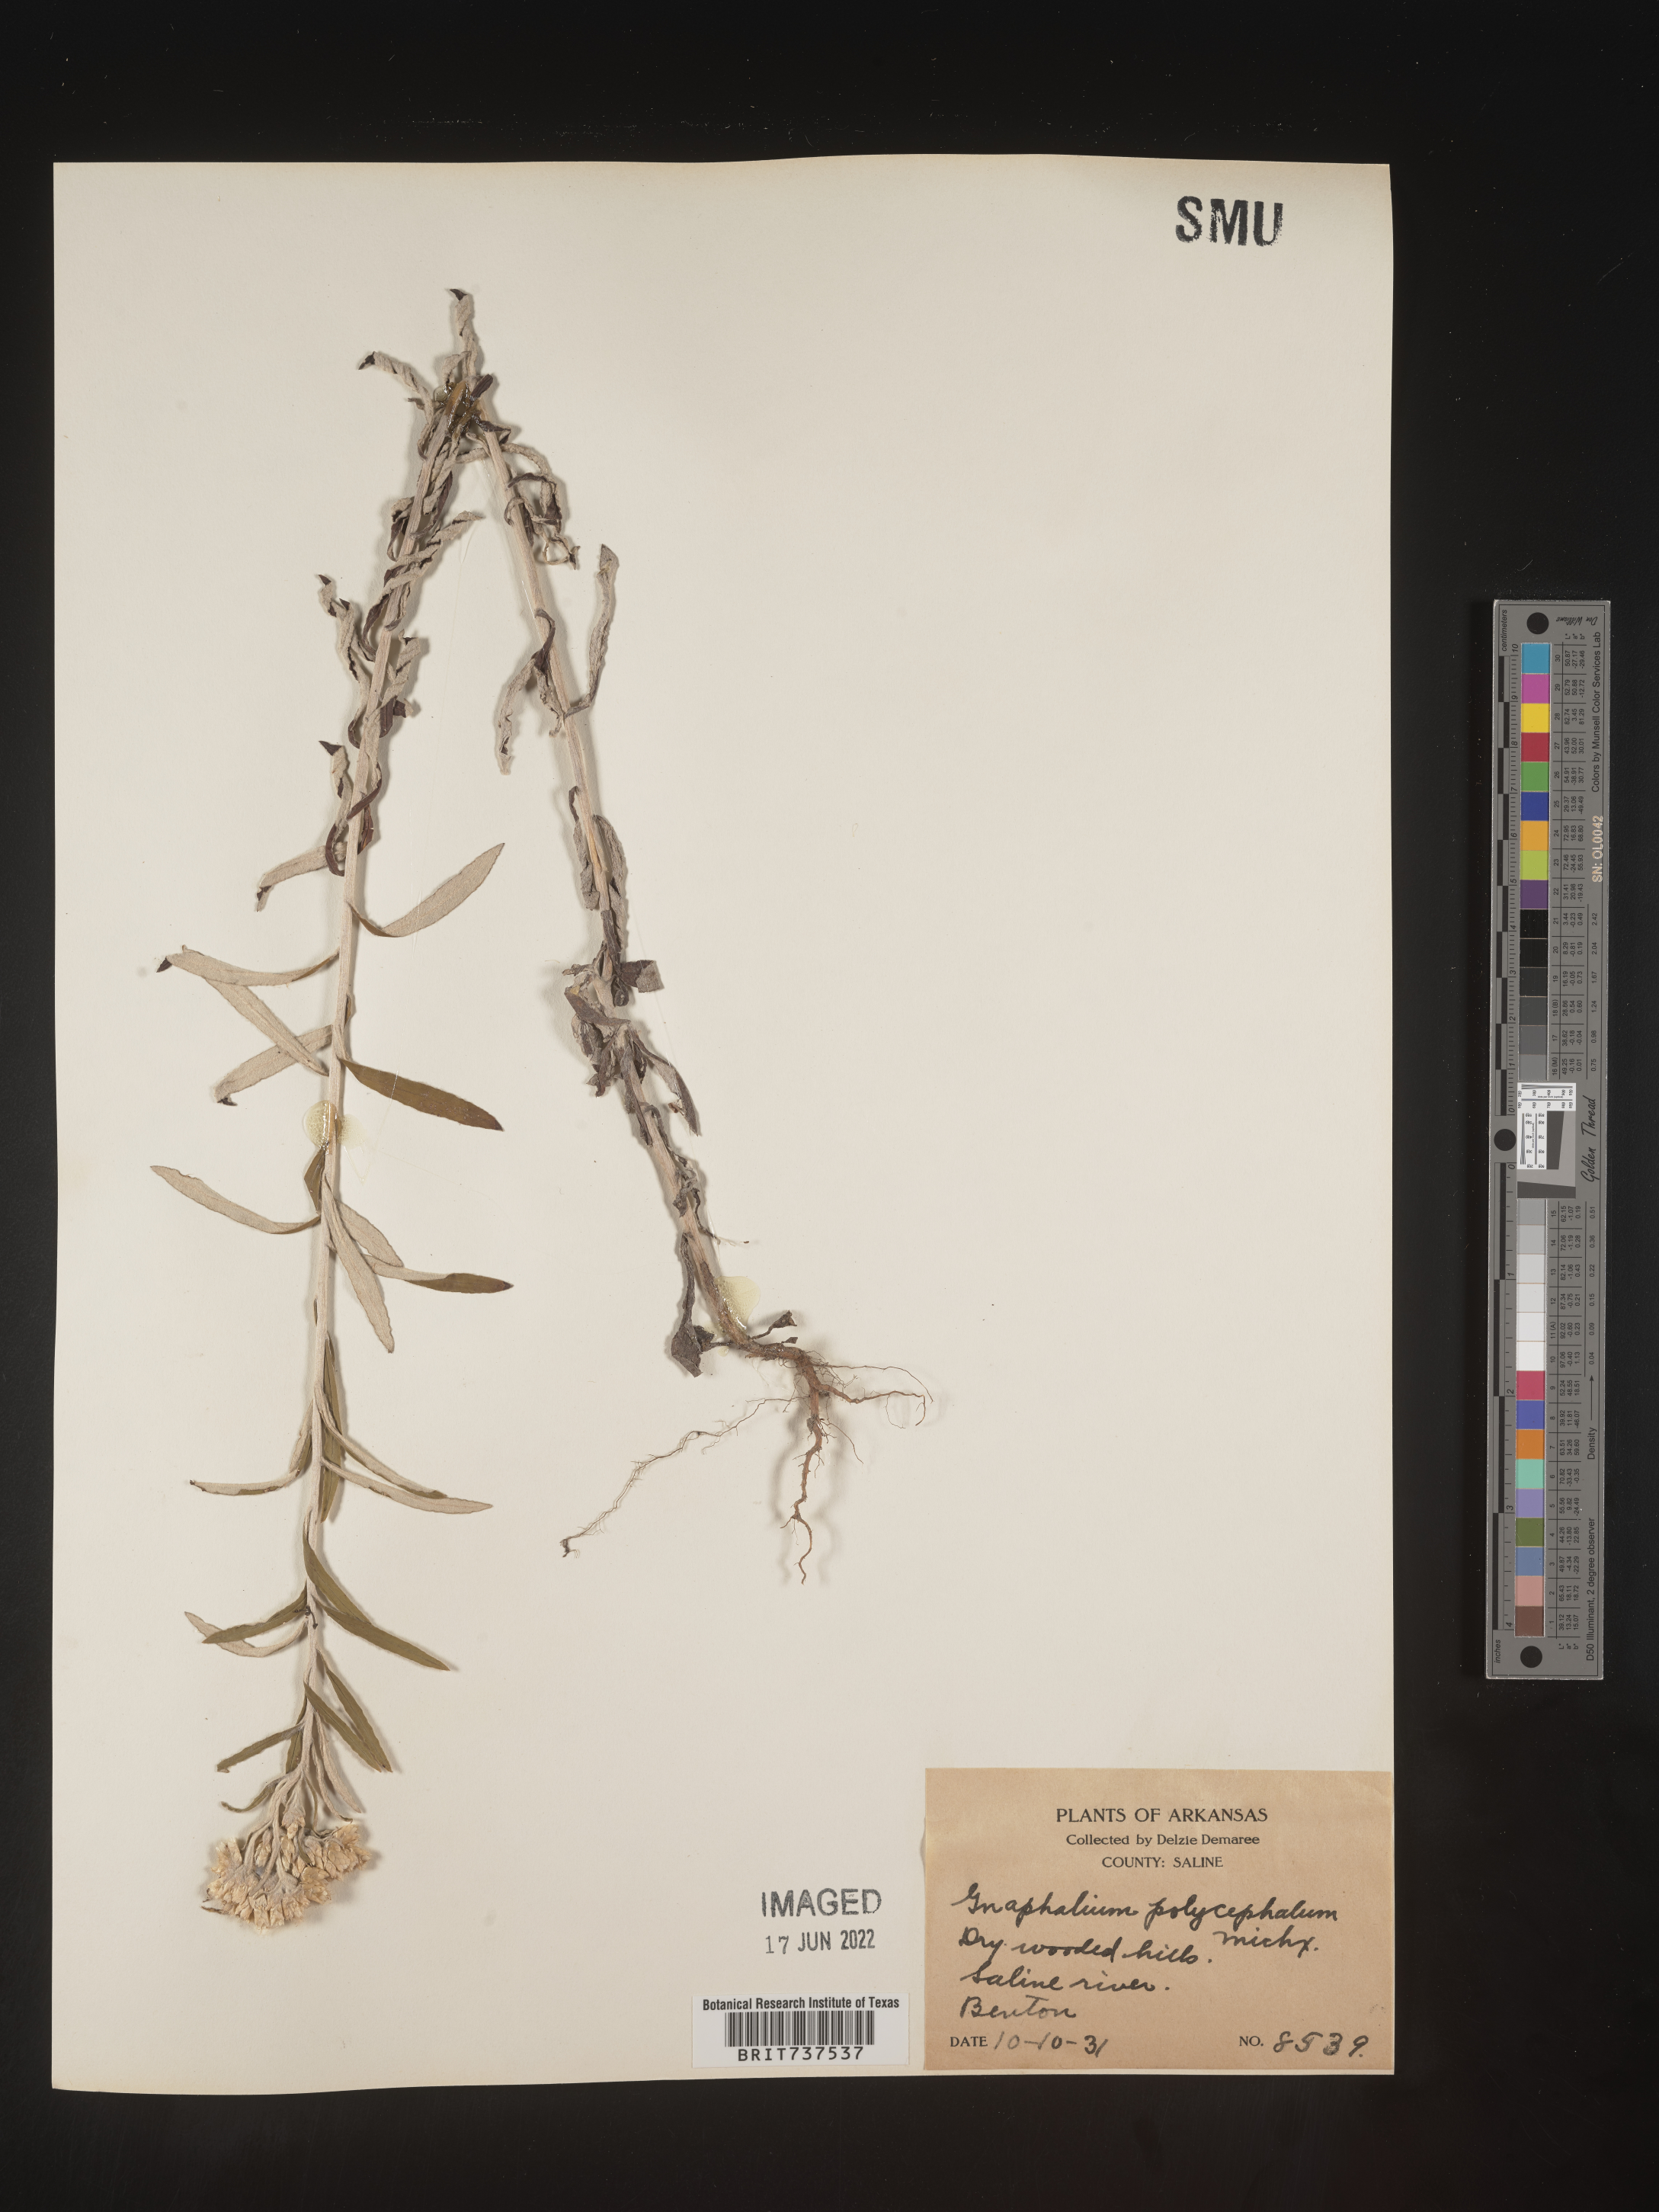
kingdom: Plantae
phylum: Tracheophyta
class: Magnoliopsida
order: Asterales
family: Asteraceae
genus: Pseudognaphalium
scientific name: Pseudognaphalium obtusifolium
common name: Eastern rabbit-tobacco
